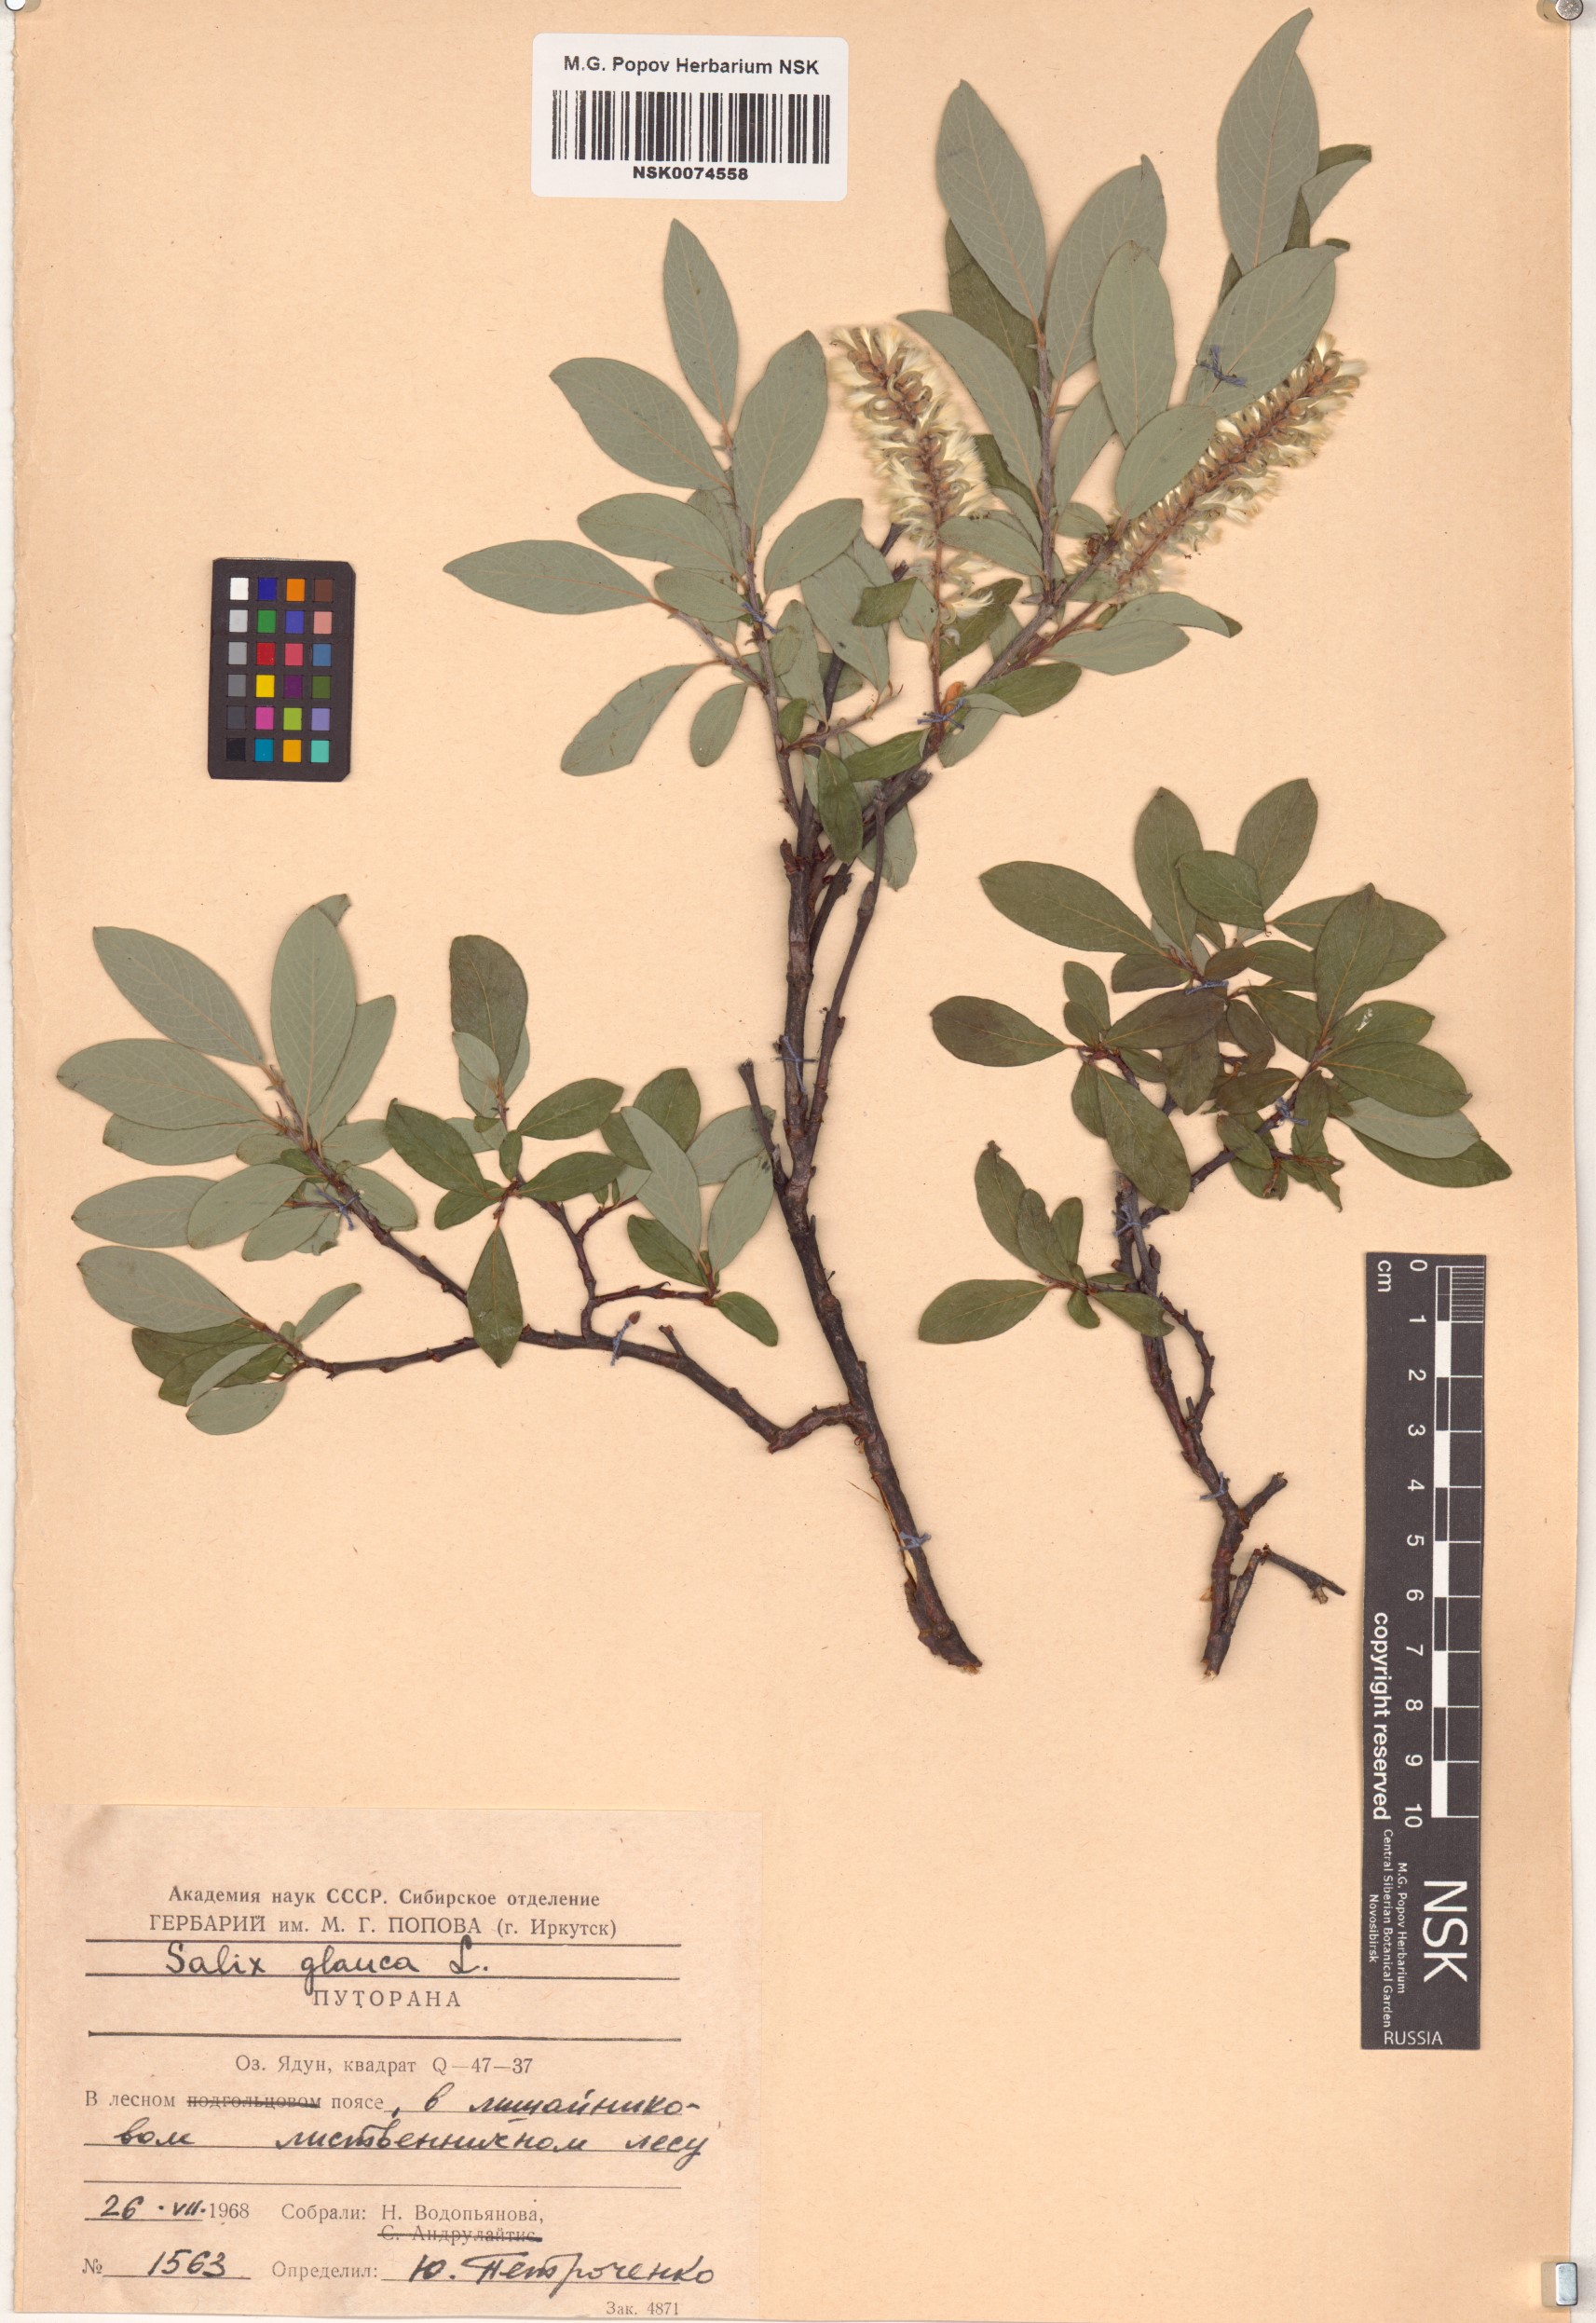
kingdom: Plantae
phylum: Tracheophyta
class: Magnoliopsida
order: Malpighiales
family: Salicaceae
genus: Salix
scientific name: Salix glauca
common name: Glaucous willow
